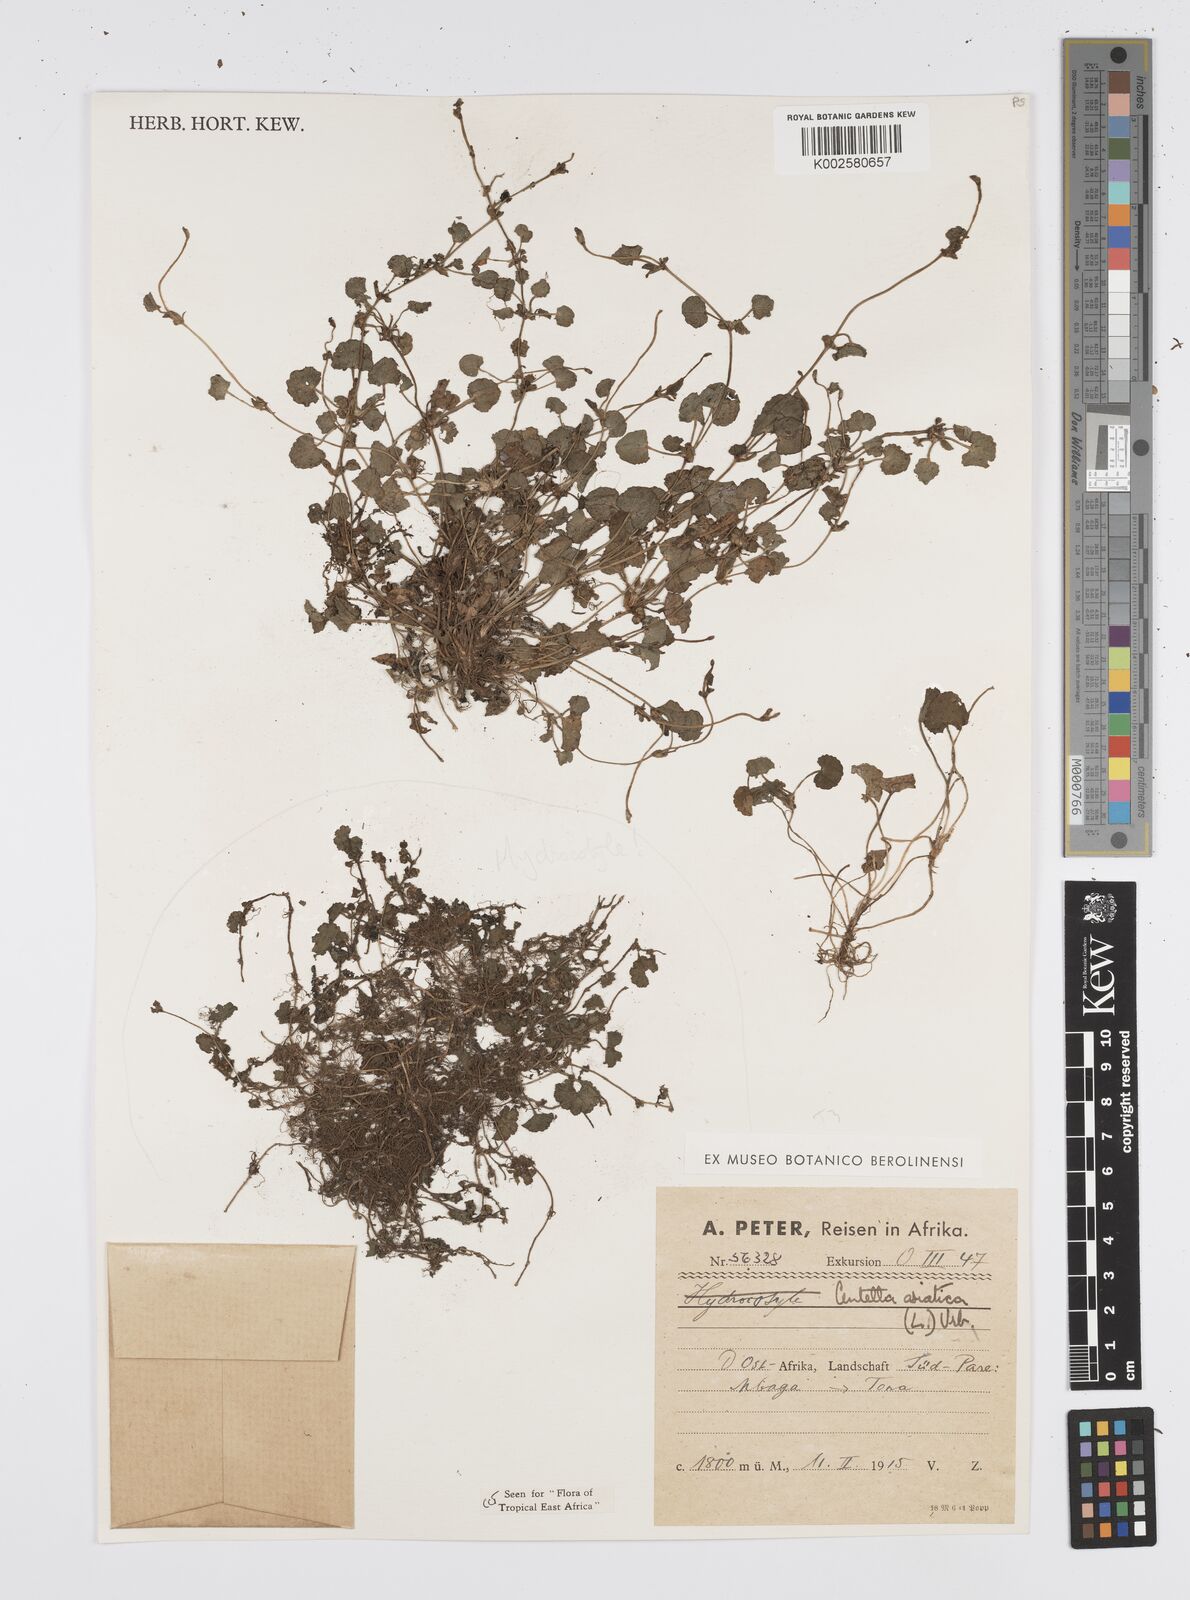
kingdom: Plantae
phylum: Tracheophyta
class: Magnoliopsida
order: Apiales
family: Apiaceae
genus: Centella
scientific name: Centella asiatica
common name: Spadeleaf
